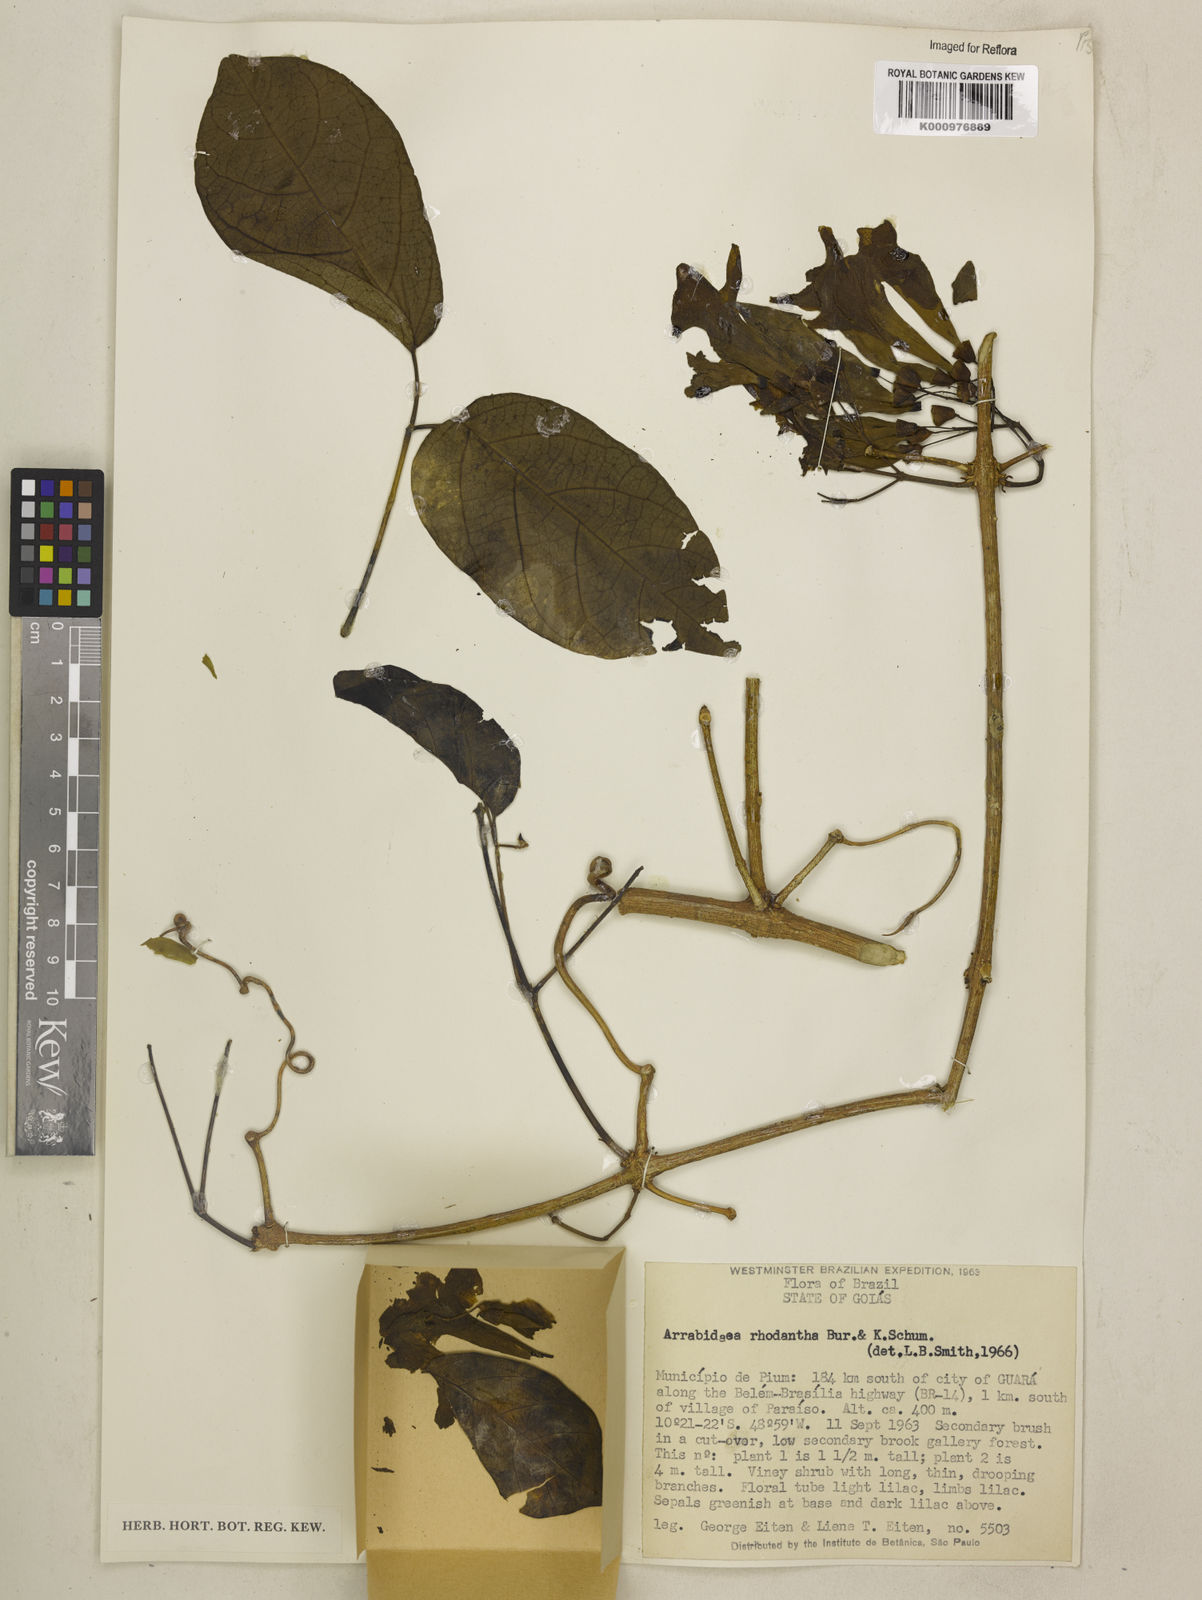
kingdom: Plantae
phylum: Tracheophyta
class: Magnoliopsida
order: Lamiales
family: Bignoniaceae
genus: Tanaecium
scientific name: Tanaecium dichotomum
